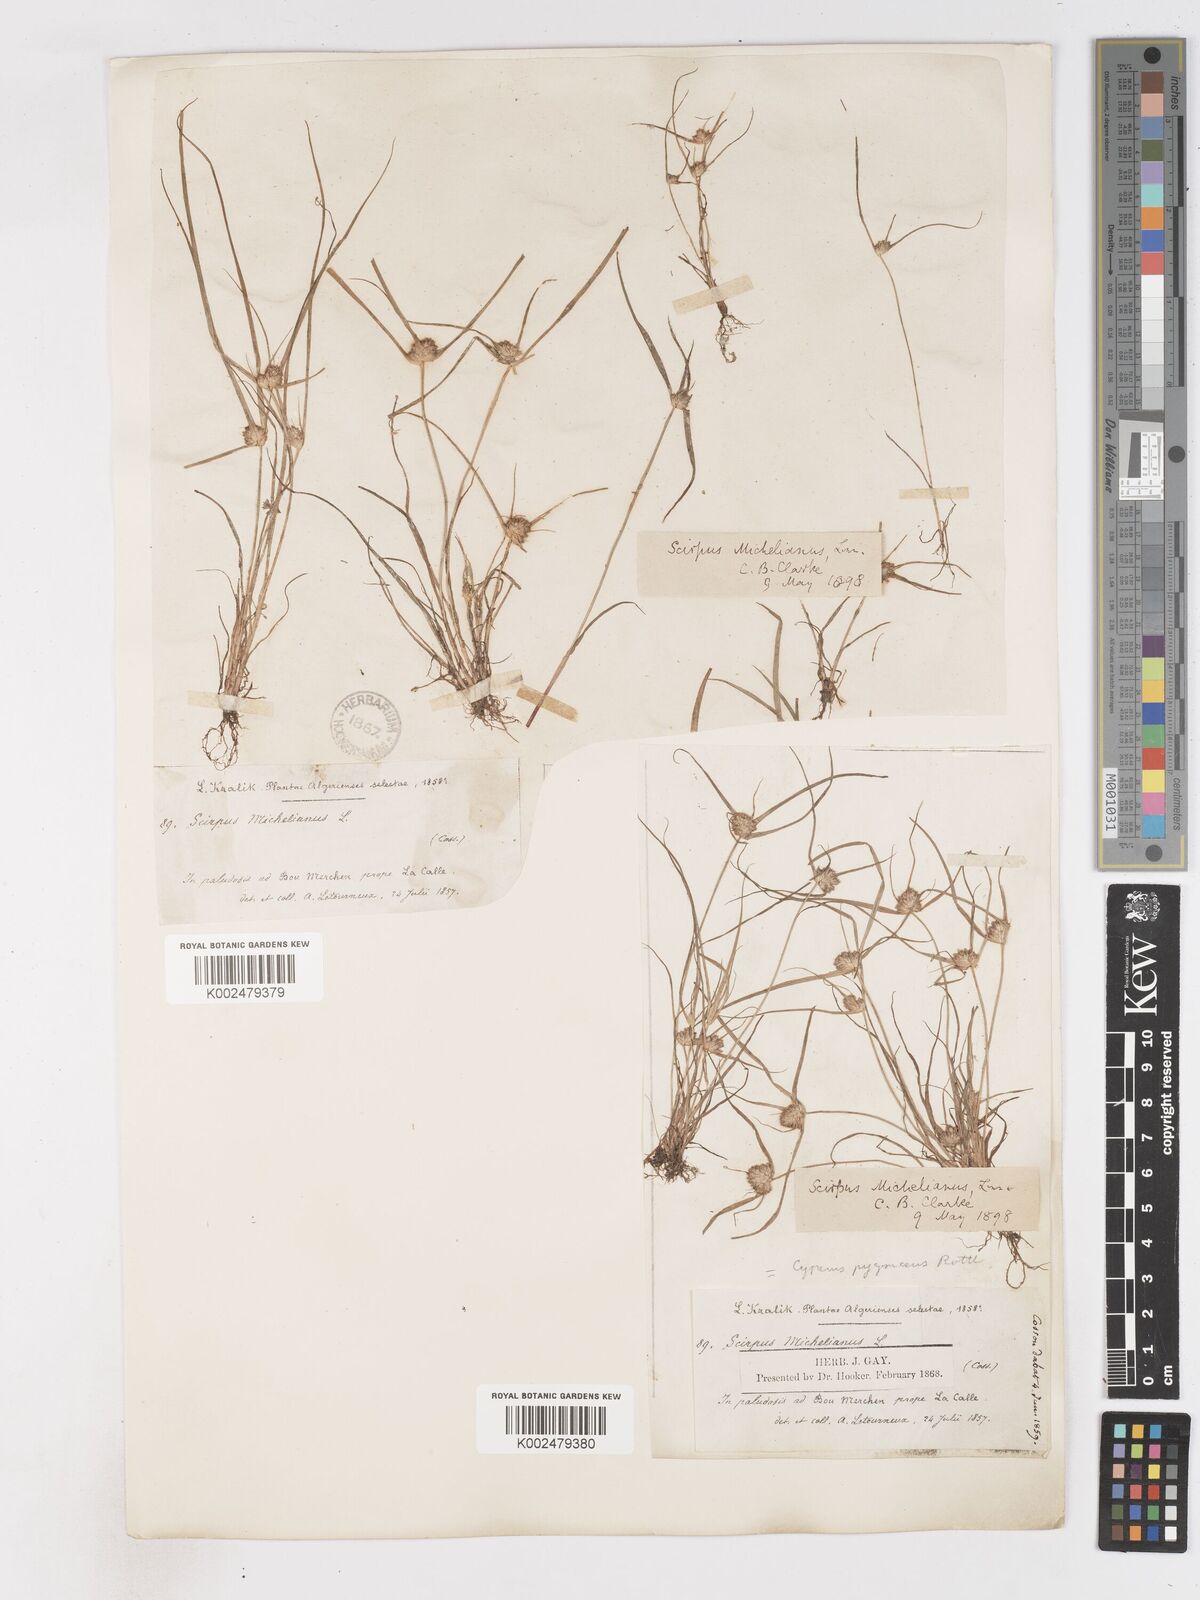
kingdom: Plantae
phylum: Tracheophyta
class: Liliopsida
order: Poales
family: Cyperaceae
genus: Cyperus
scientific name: Cyperus michelianus
